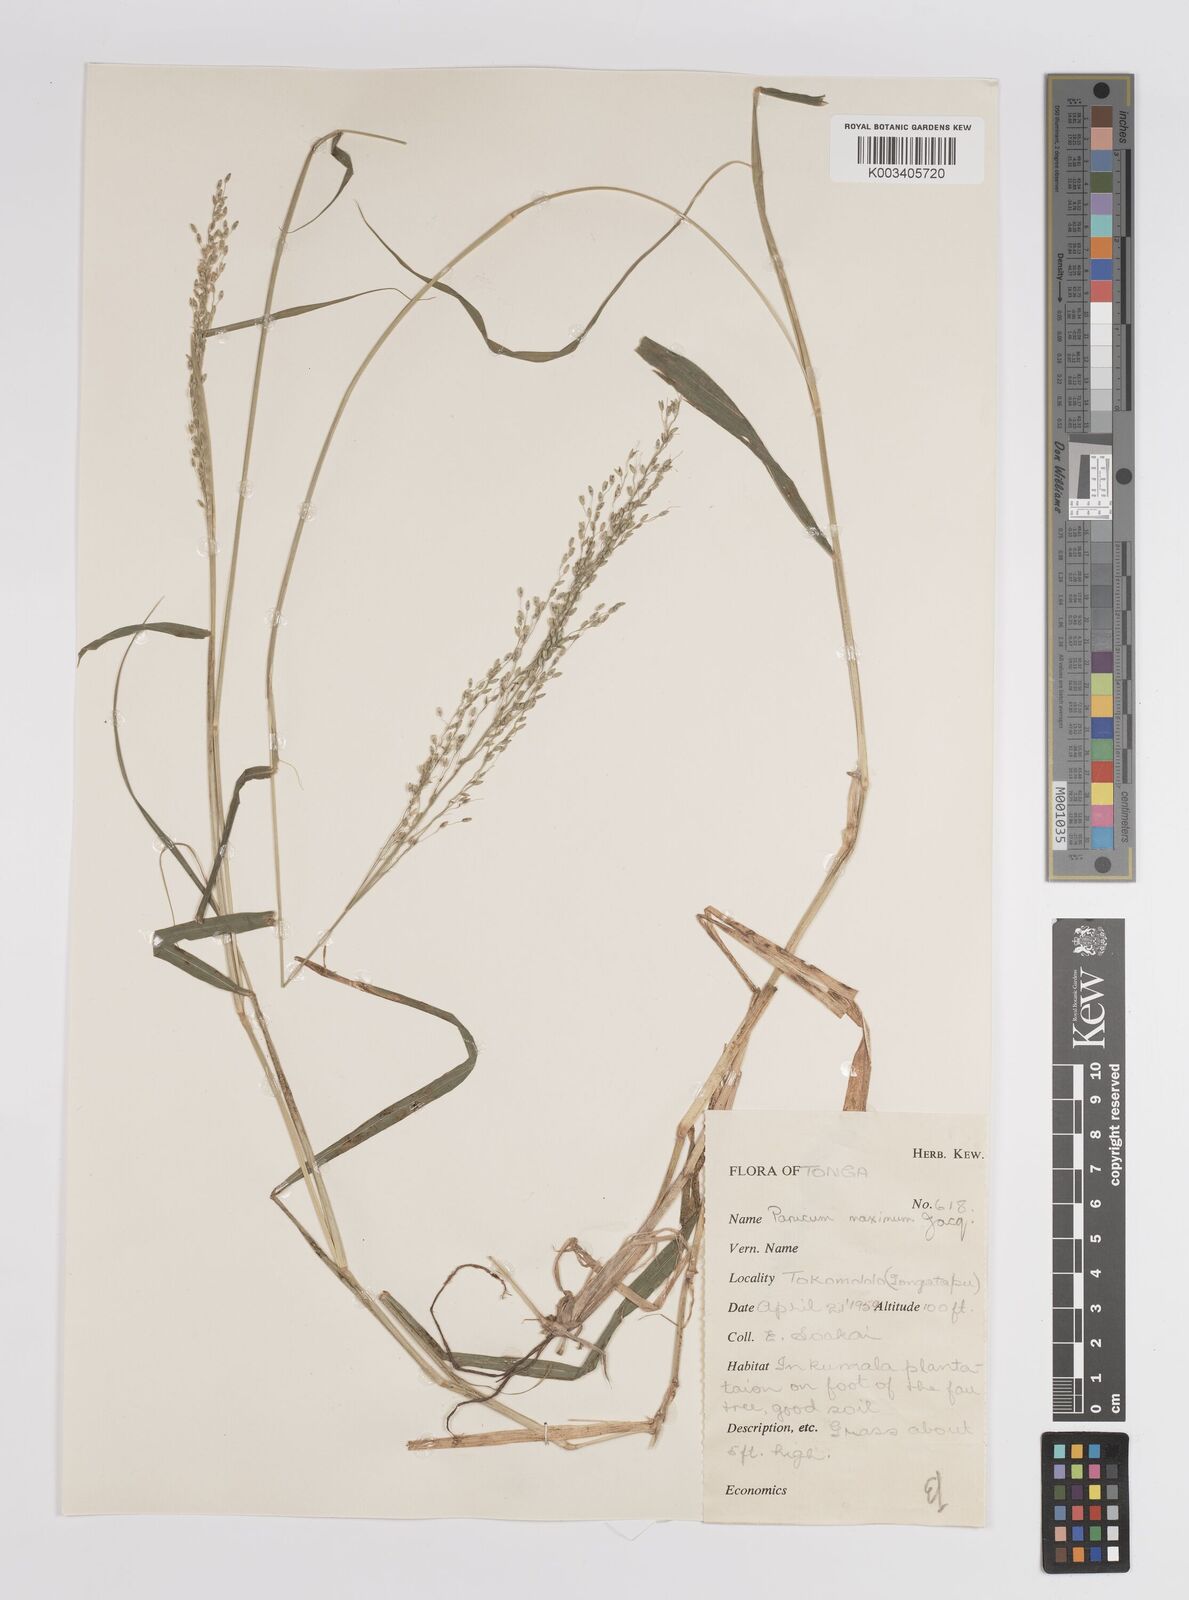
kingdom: Plantae
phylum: Tracheophyta
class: Liliopsida
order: Poales
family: Poaceae
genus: Megathyrsus
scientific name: Megathyrsus maximus
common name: Guineagrass
